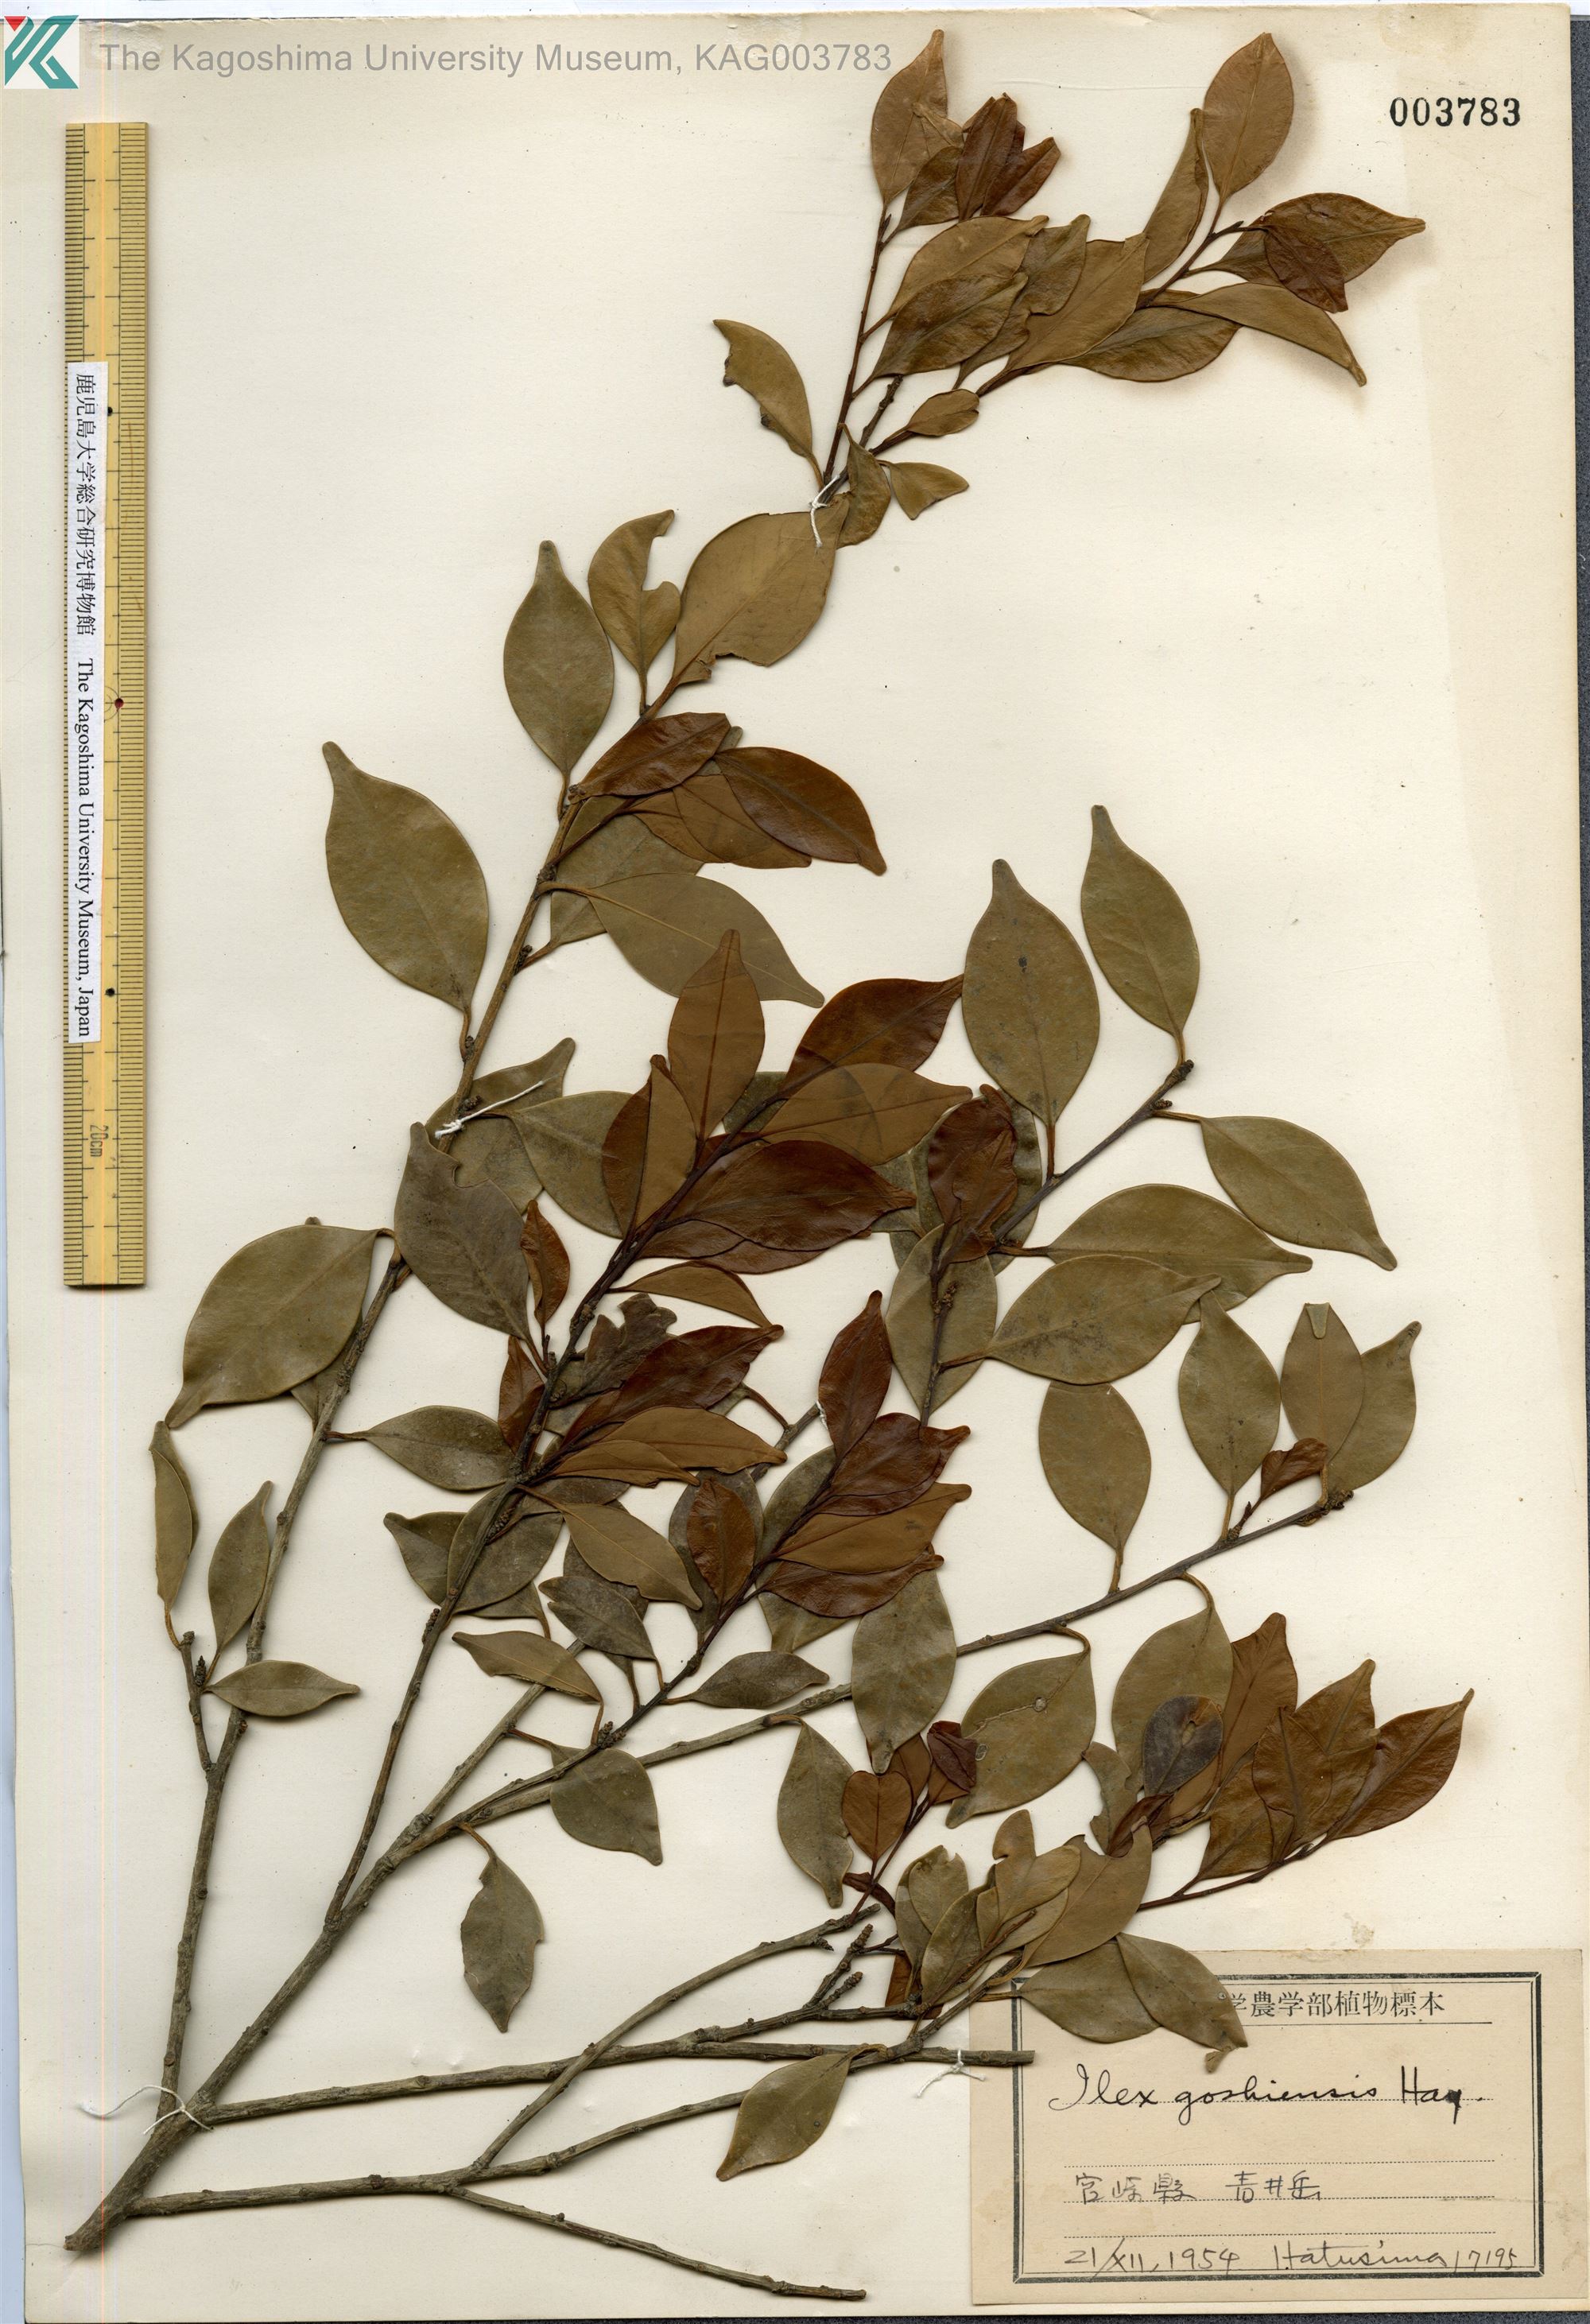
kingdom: Plantae
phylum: Tracheophyta
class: Magnoliopsida
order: Aquifoliales
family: Aquifoliaceae
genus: Ilex
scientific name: Ilex goshiensis
